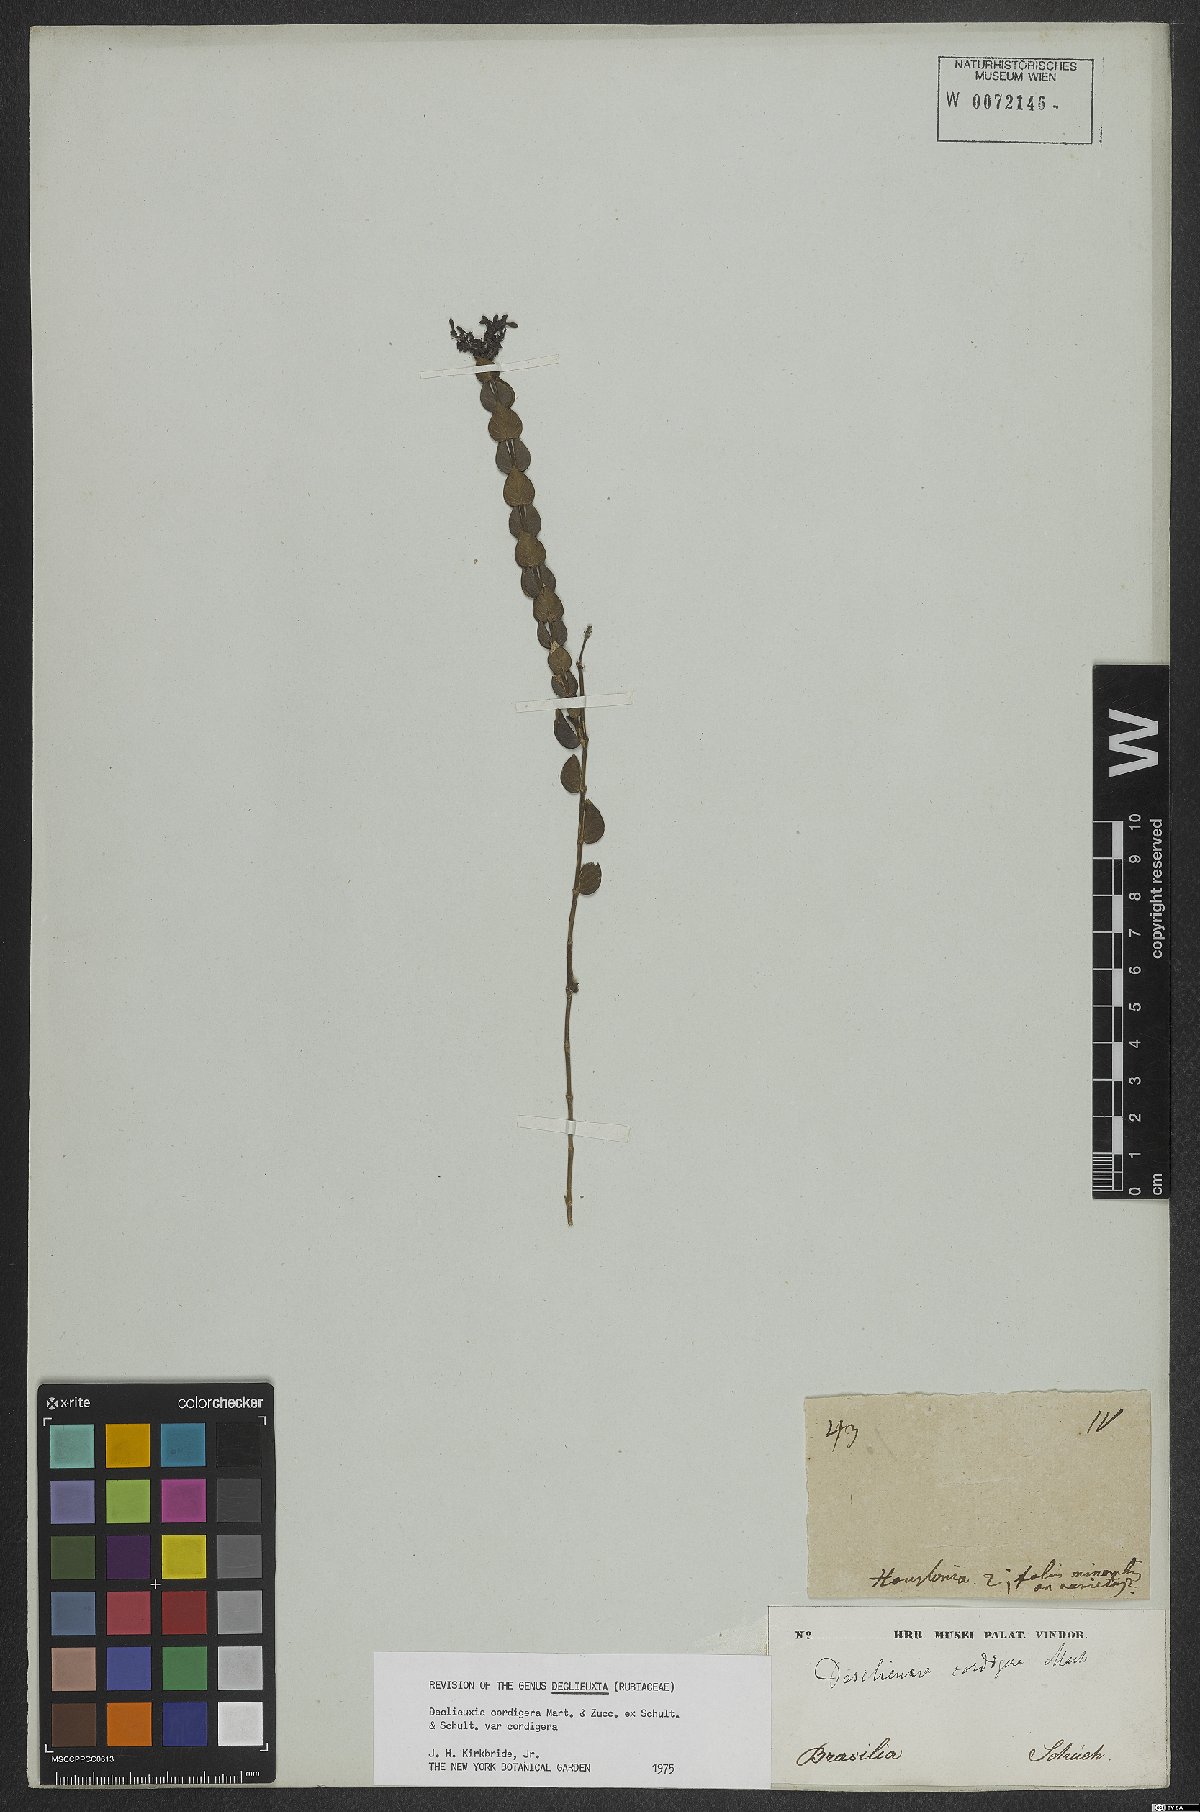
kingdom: Plantae
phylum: Tracheophyta
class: Magnoliopsida
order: Gentianales
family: Rubiaceae
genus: Declieuxia
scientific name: Declieuxia cordigera
